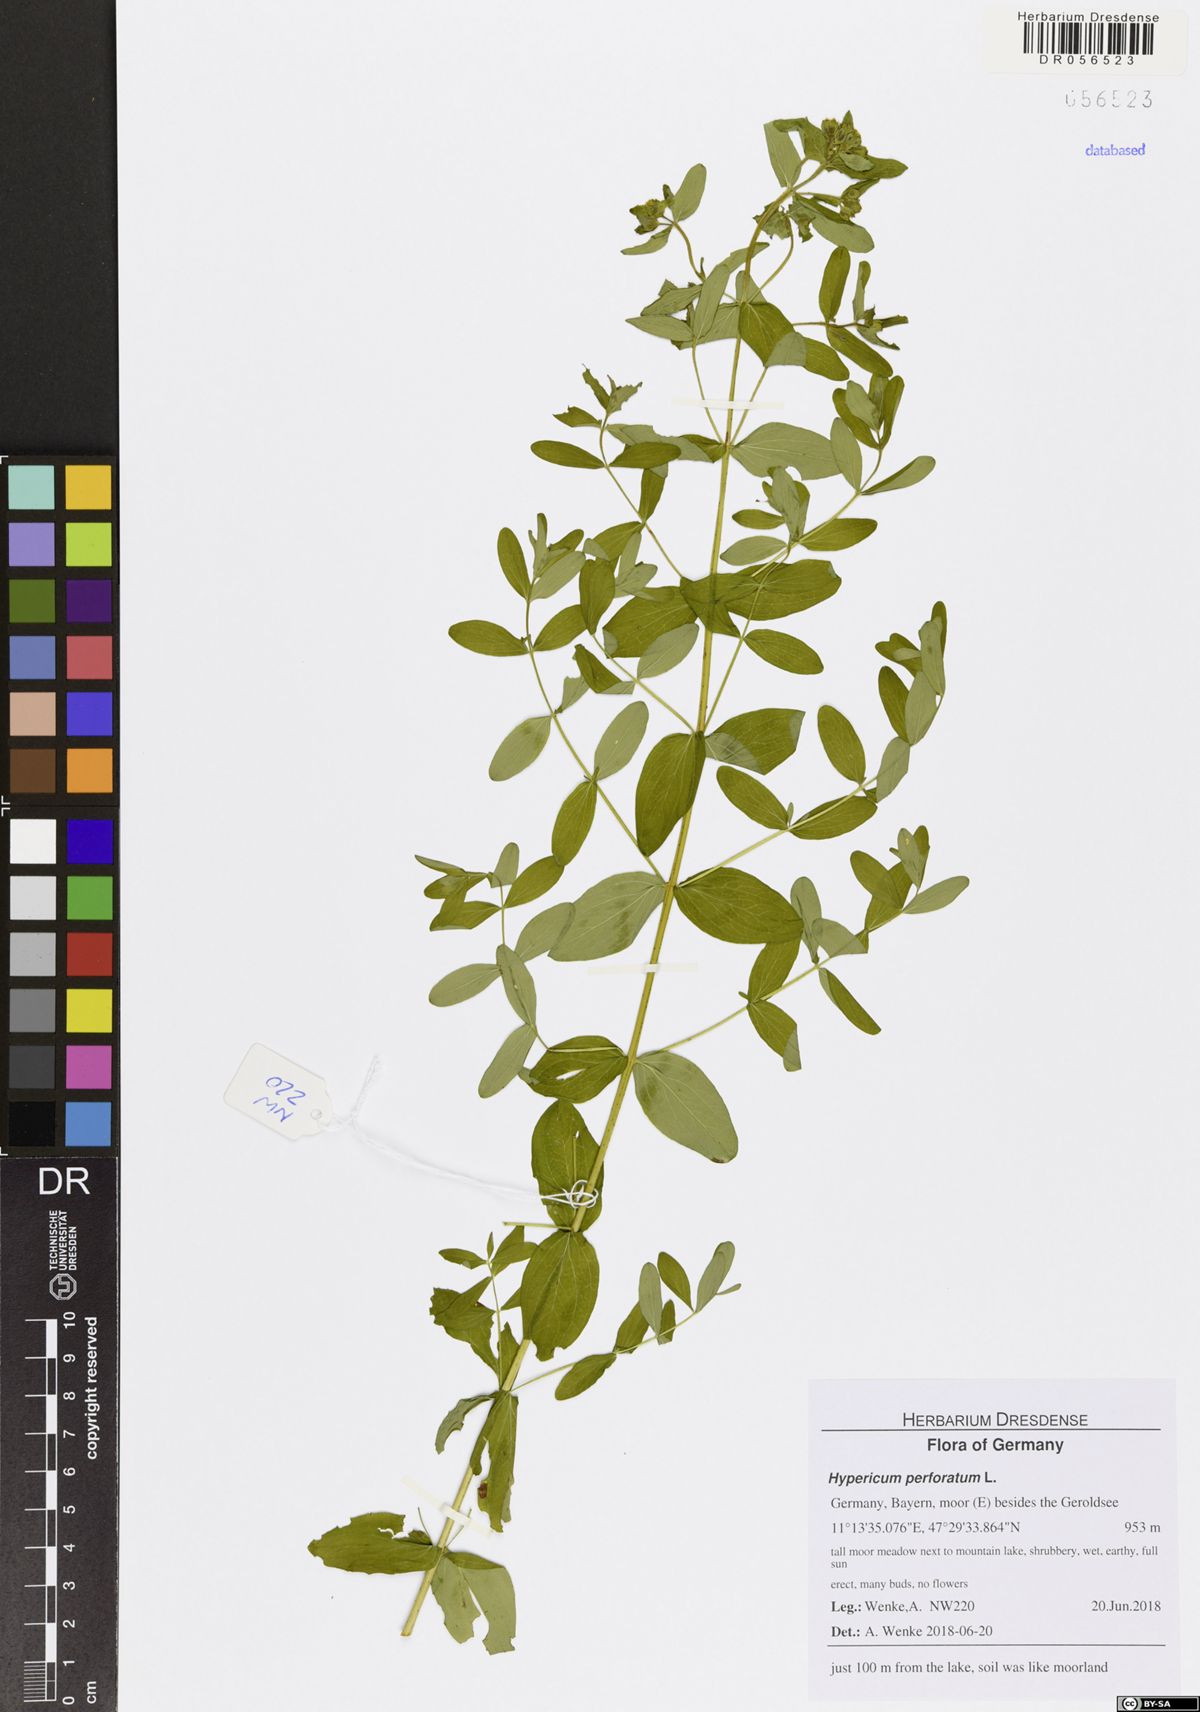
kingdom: Plantae
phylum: Tracheophyta
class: Magnoliopsida
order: Malpighiales
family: Hypericaceae
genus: Hypericum
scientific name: Hypericum perforatum
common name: Common st. johnswort
